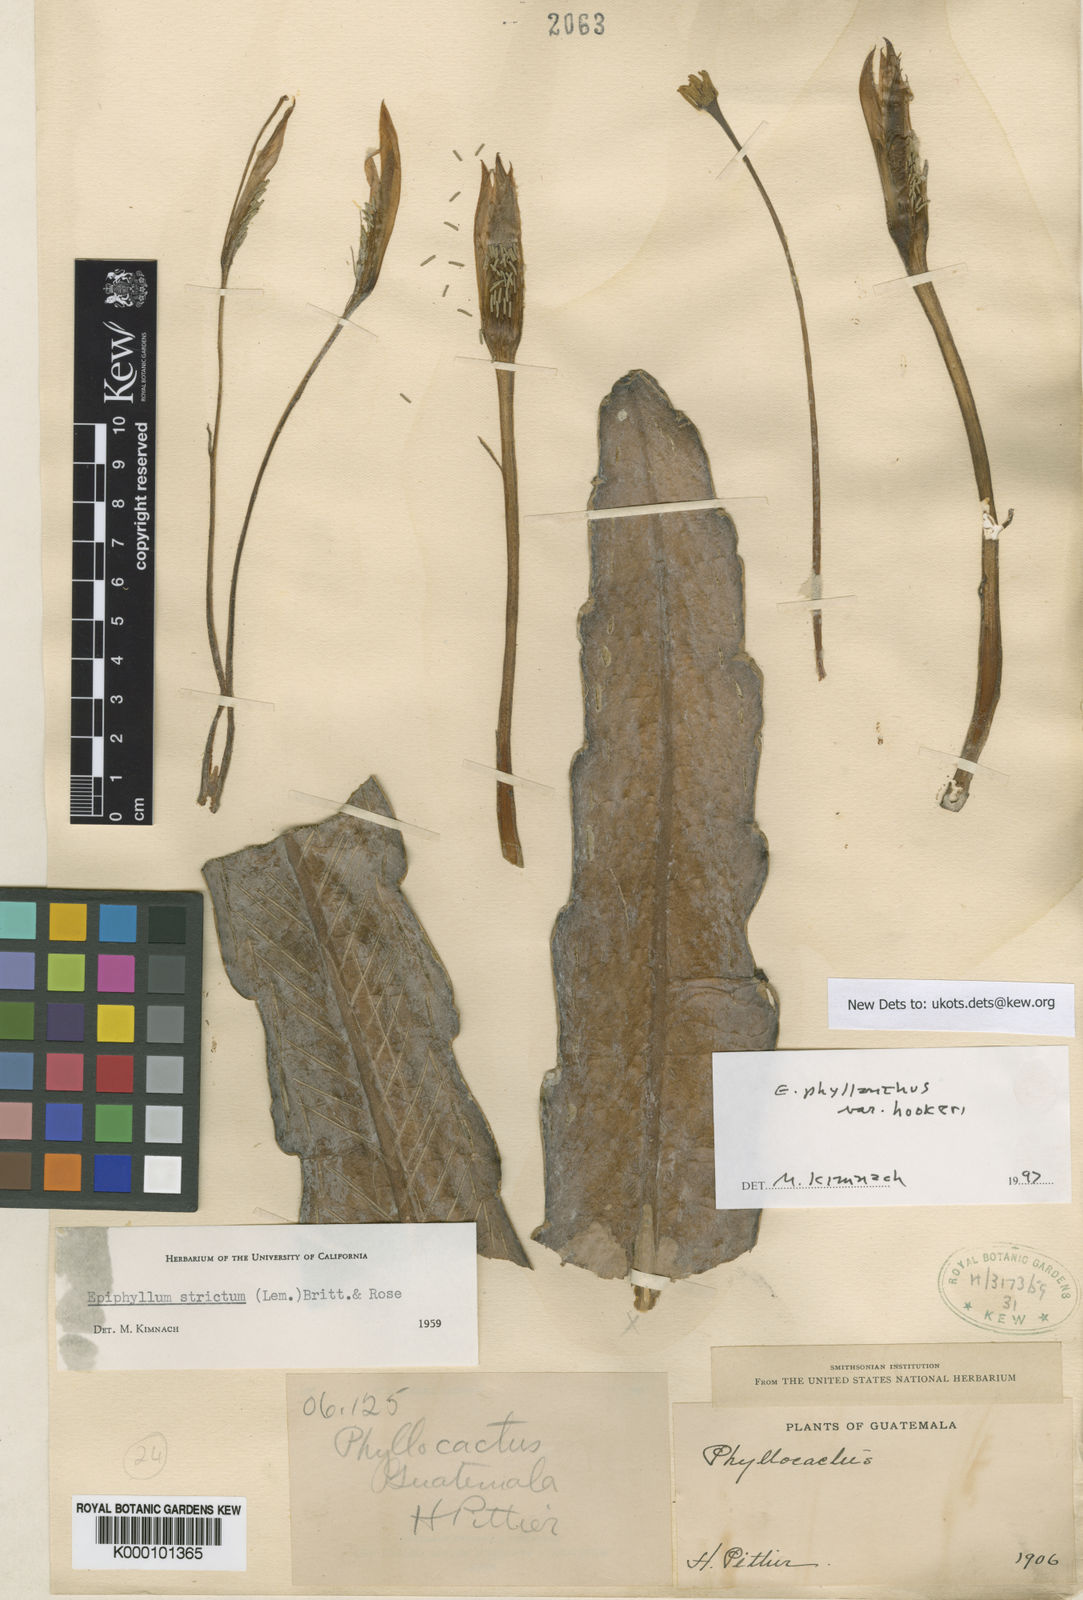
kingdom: Plantae
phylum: Tracheophyta
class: Magnoliopsida
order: Caryophyllales
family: Cactaceae
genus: Epiphyllum
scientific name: Epiphyllum phyllanthus
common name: Climbing cactus
